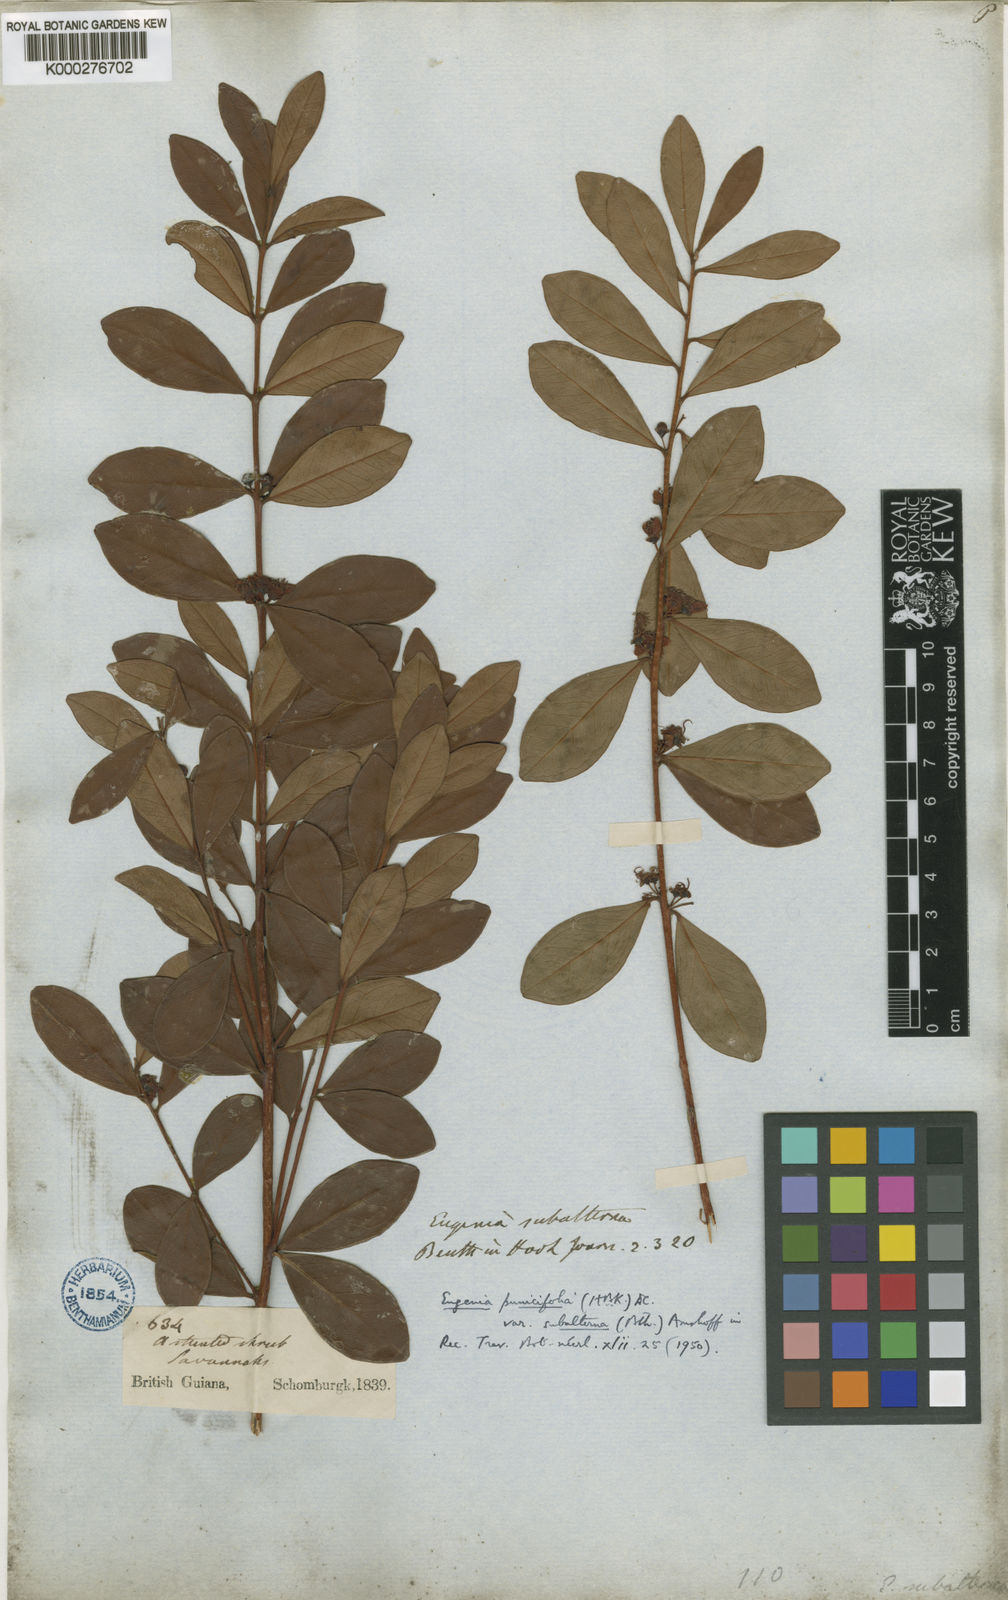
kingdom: Plantae
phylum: Tracheophyta
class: Magnoliopsida
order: Myrtales
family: Myrtaceae
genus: Eugenia
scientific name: Eugenia punicifolia
